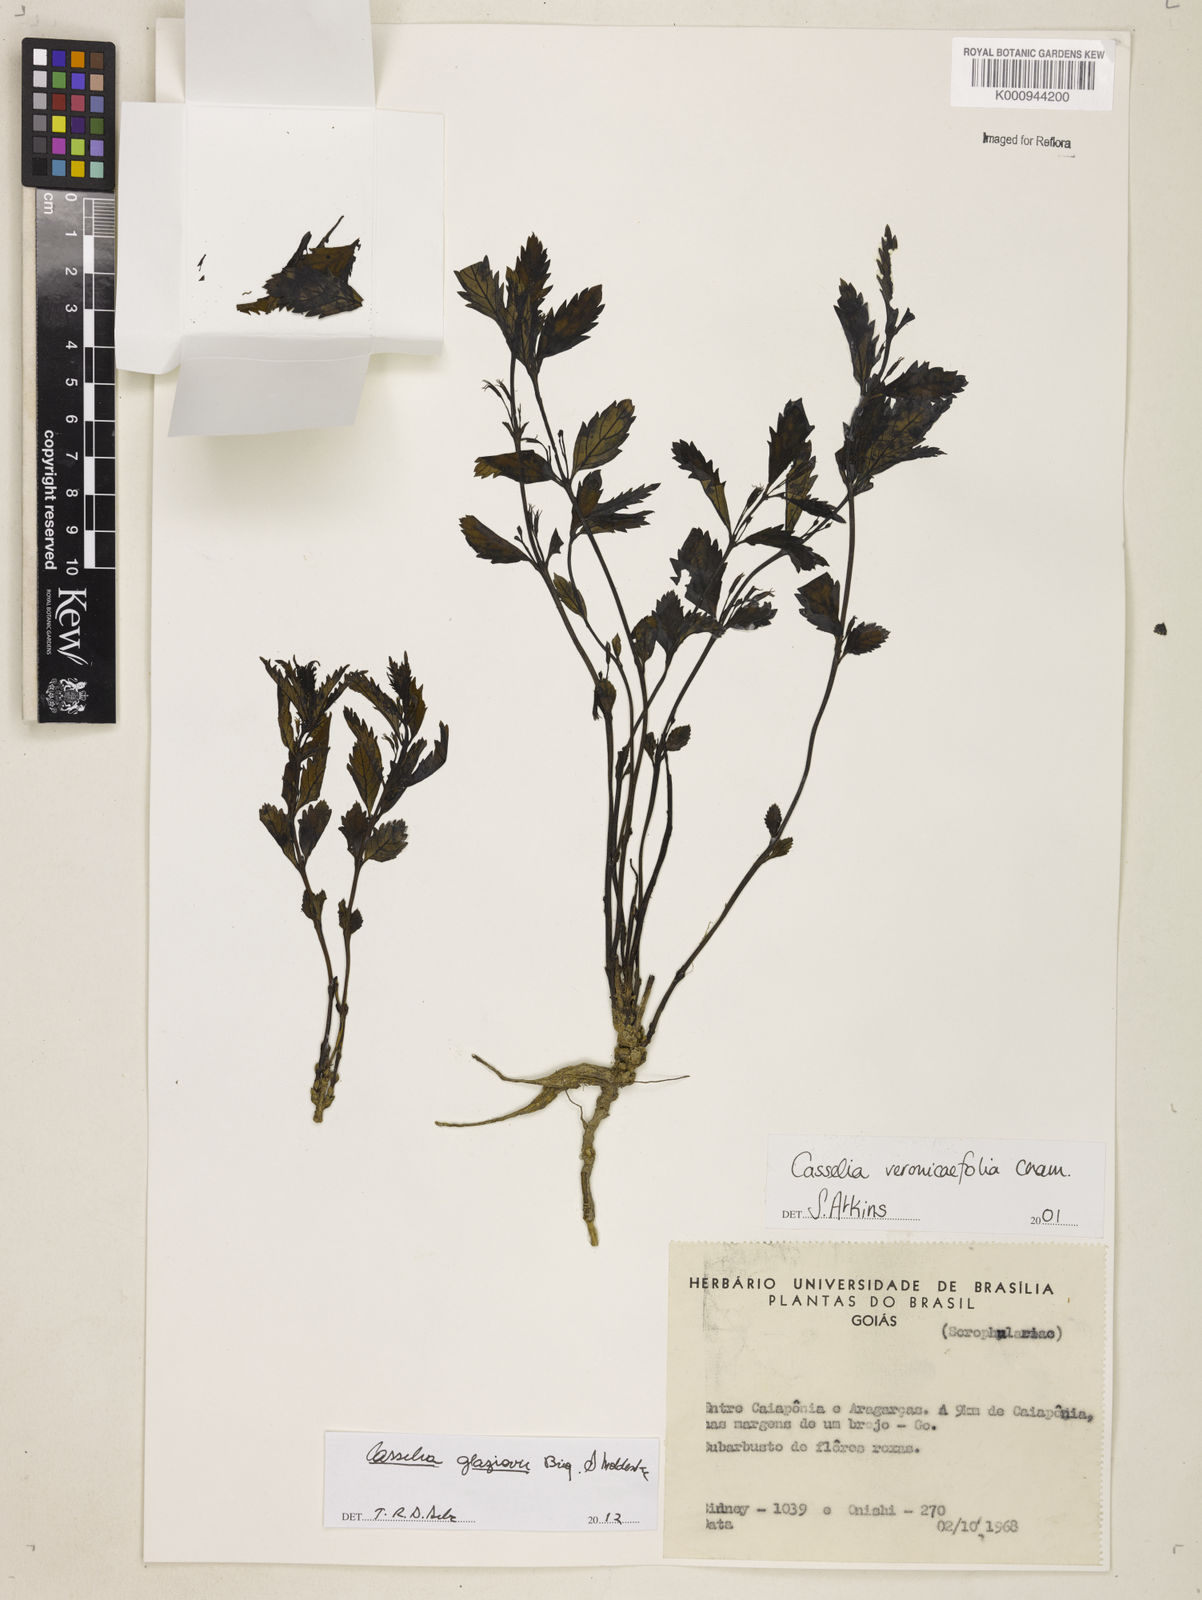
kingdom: Plantae
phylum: Tracheophyta
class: Magnoliopsida
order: Lamiales
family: Verbenaceae
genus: Casselia
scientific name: Casselia glaziovii
